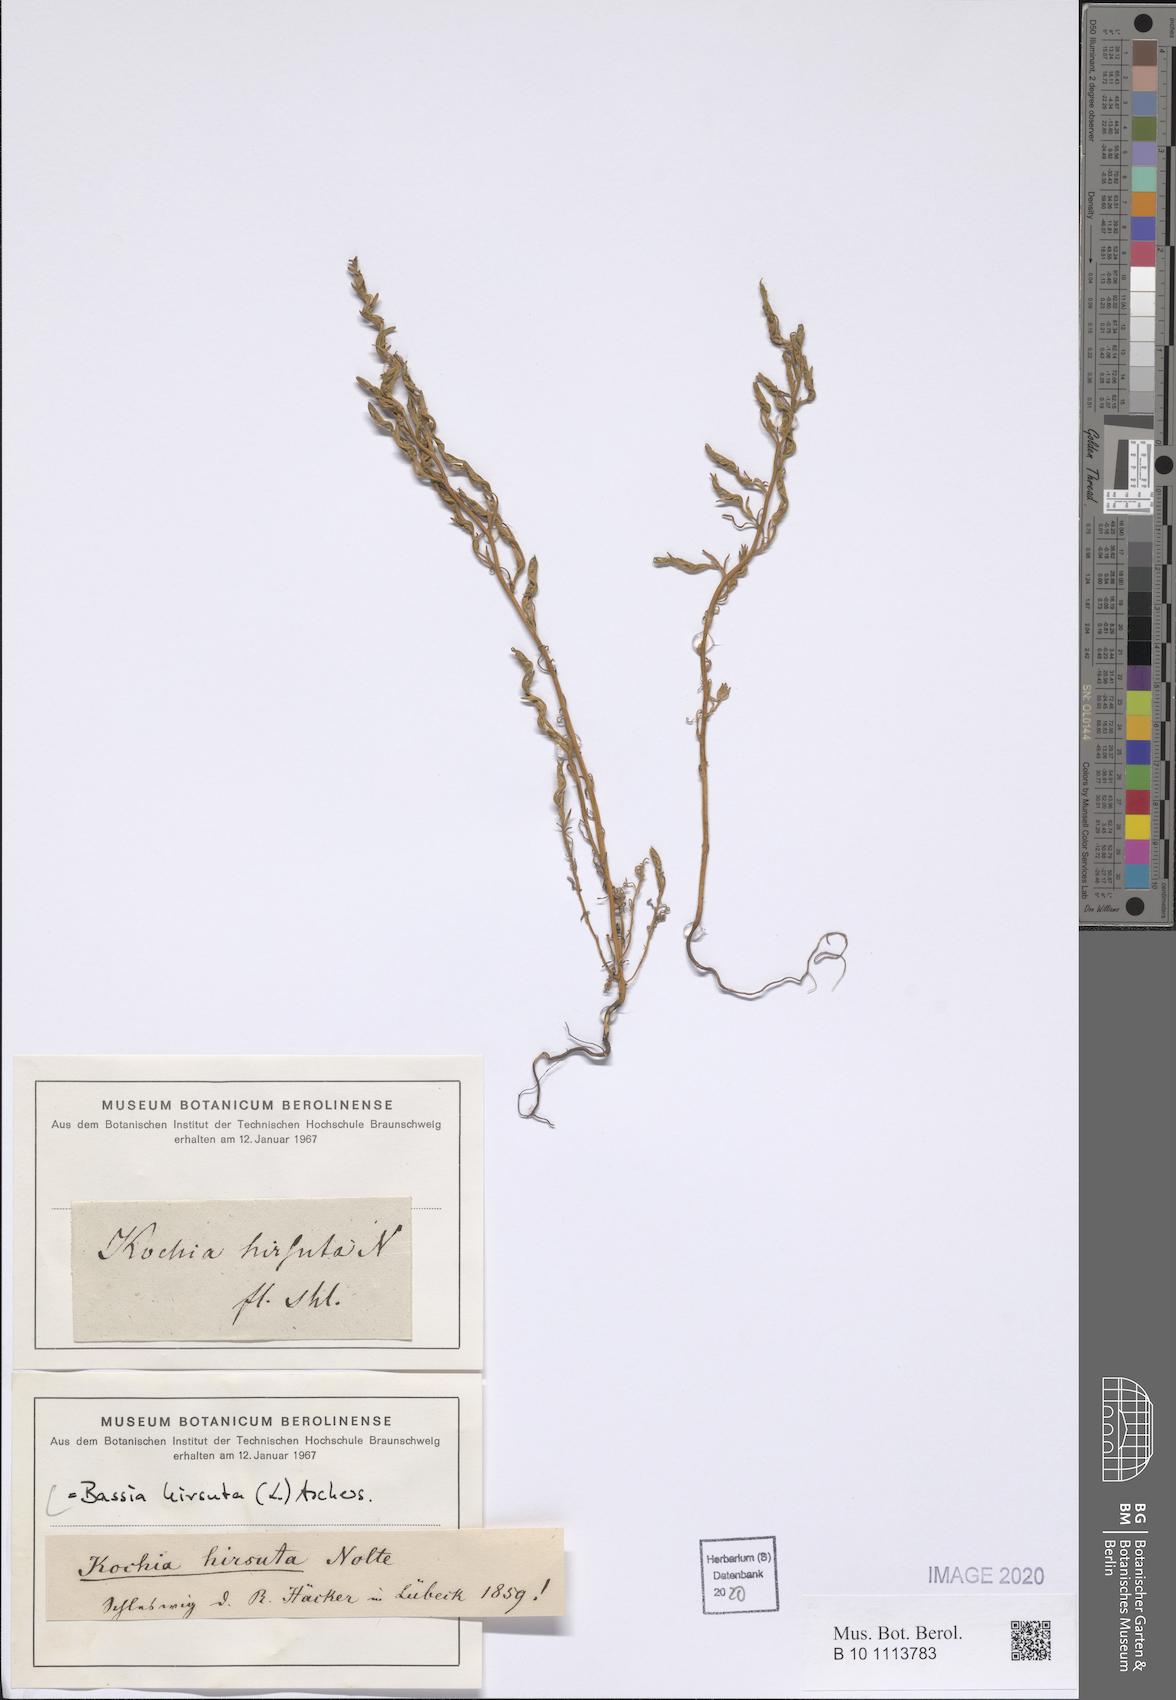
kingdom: Plantae
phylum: Tracheophyta
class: Magnoliopsida
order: Caryophyllales
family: Amaranthaceae
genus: Spirobassia
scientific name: Spirobassia hirsuta
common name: Hairy smotherweed
